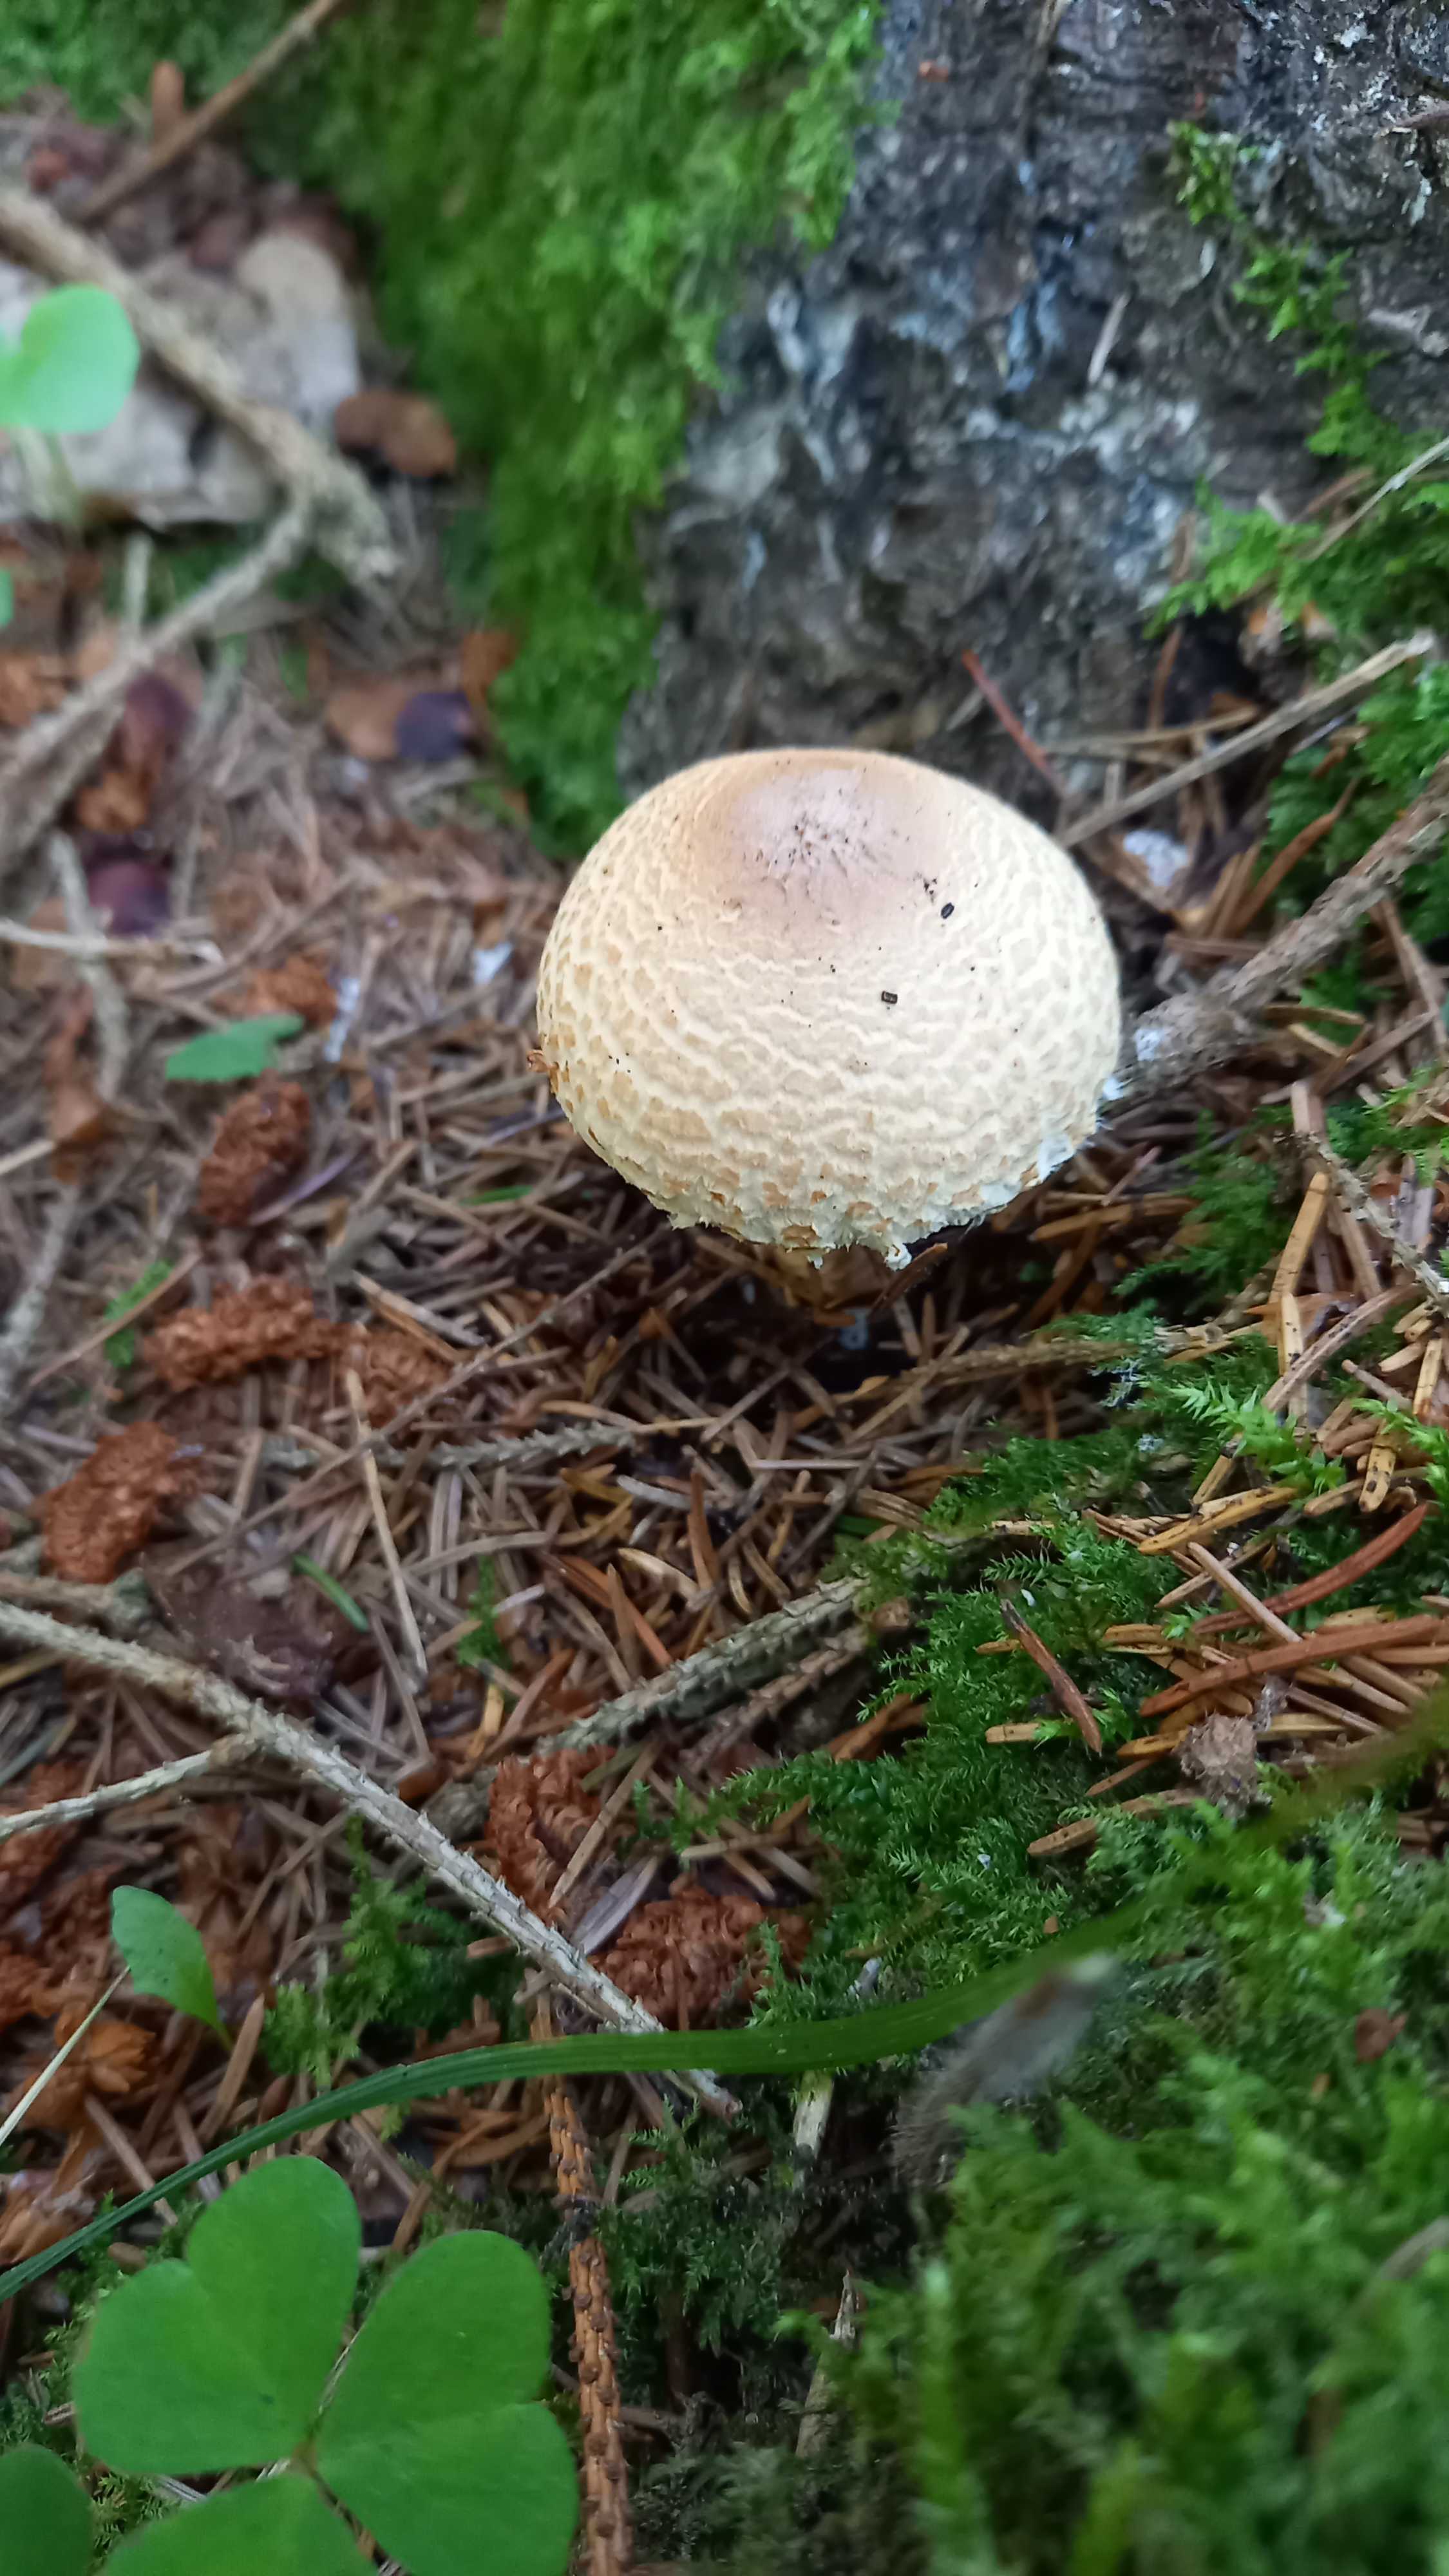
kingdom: Fungi
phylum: Basidiomycota
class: Agaricomycetes
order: Agaricales
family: Agaricaceae
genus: Lepiota
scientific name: Lepiota magnispora
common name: gulfnugget parasolhat
